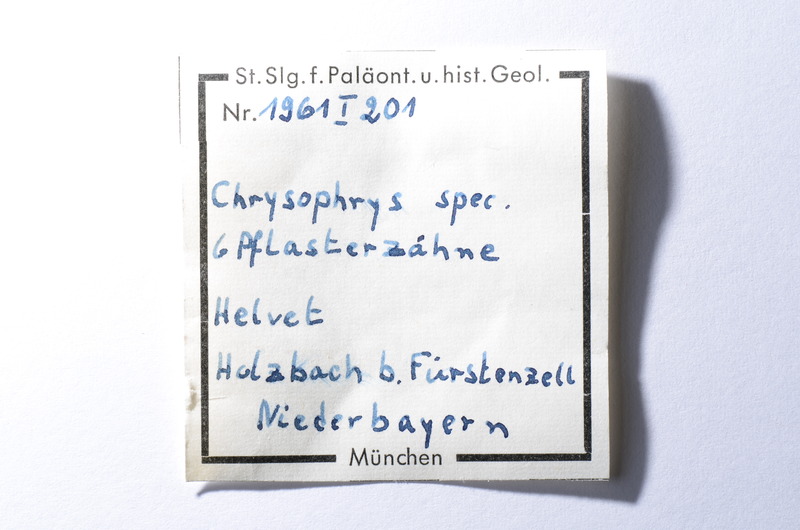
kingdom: Animalia
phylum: Chordata
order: Perciformes
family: Sparidae
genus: Chrysophrys
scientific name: Chrysophrys
